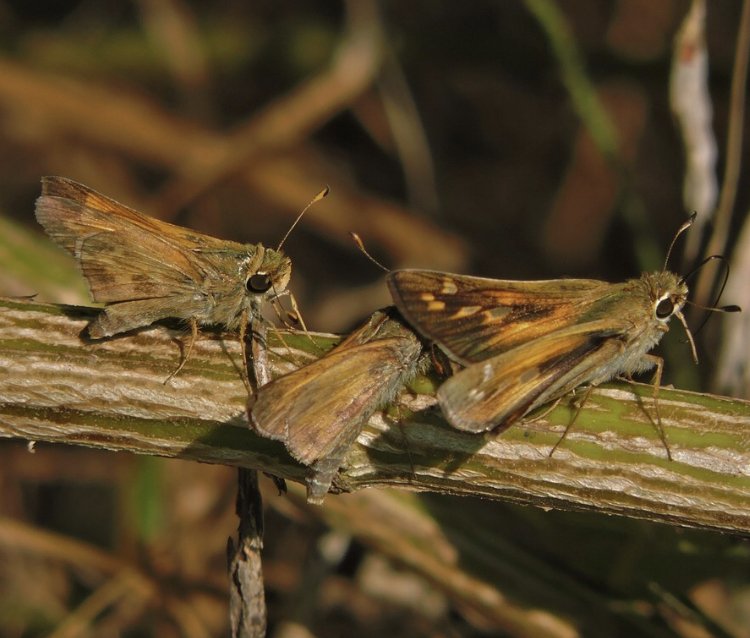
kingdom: Animalia
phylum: Arthropoda
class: Insecta
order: Lepidoptera
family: Hesperiidae
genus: Atalopedes
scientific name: Atalopedes campestris
